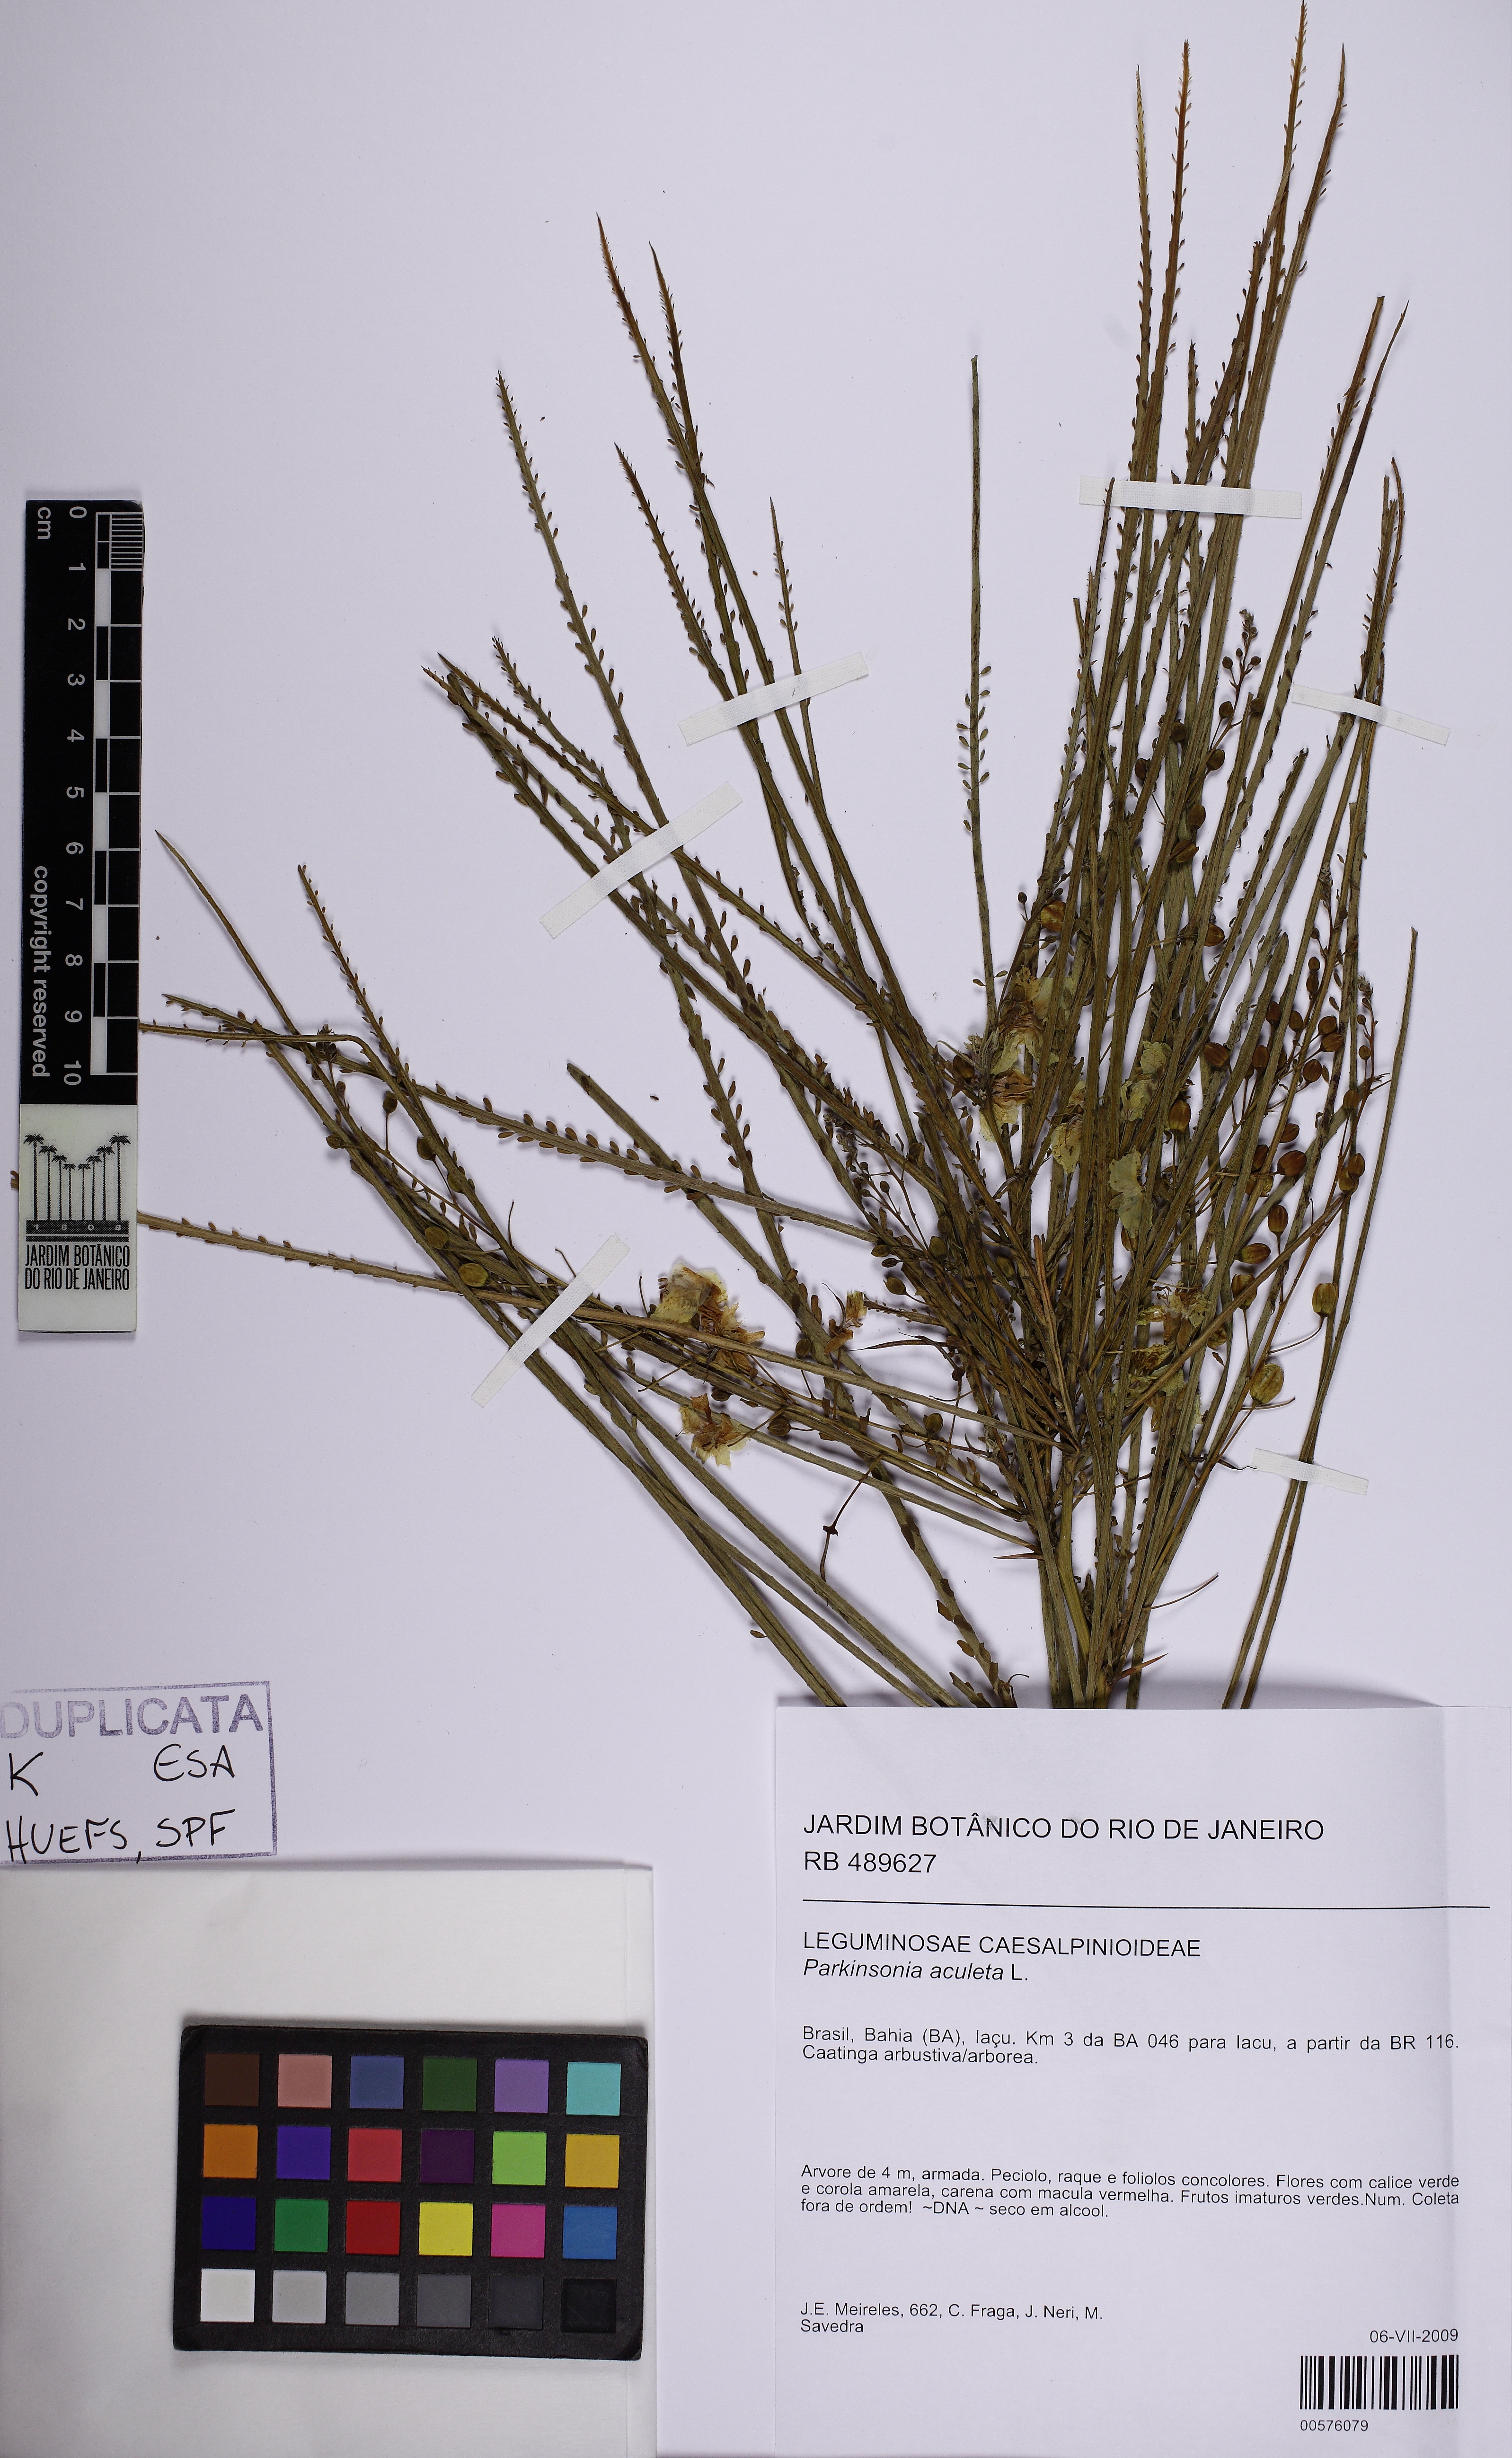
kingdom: Plantae
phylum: Tracheophyta
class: Magnoliopsida
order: Fabales
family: Fabaceae
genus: Parkinsonia
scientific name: Parkinsonia aculeata
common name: Jerusalem thorn
